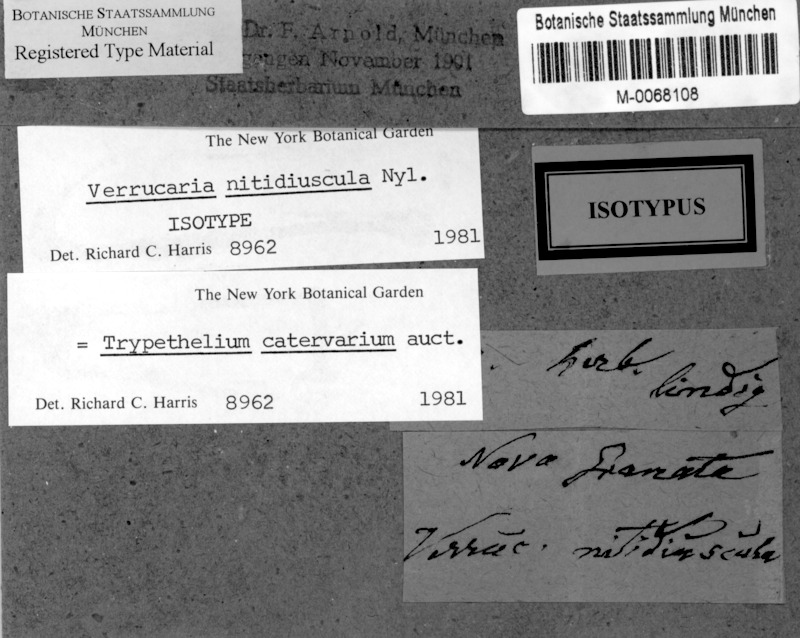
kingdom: Fungi
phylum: Ascomycota
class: Dothideomycetes
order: Trypetheliales
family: Trypetheliaceae
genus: Astrothelium
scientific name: Astrothelium nitidiusculum
